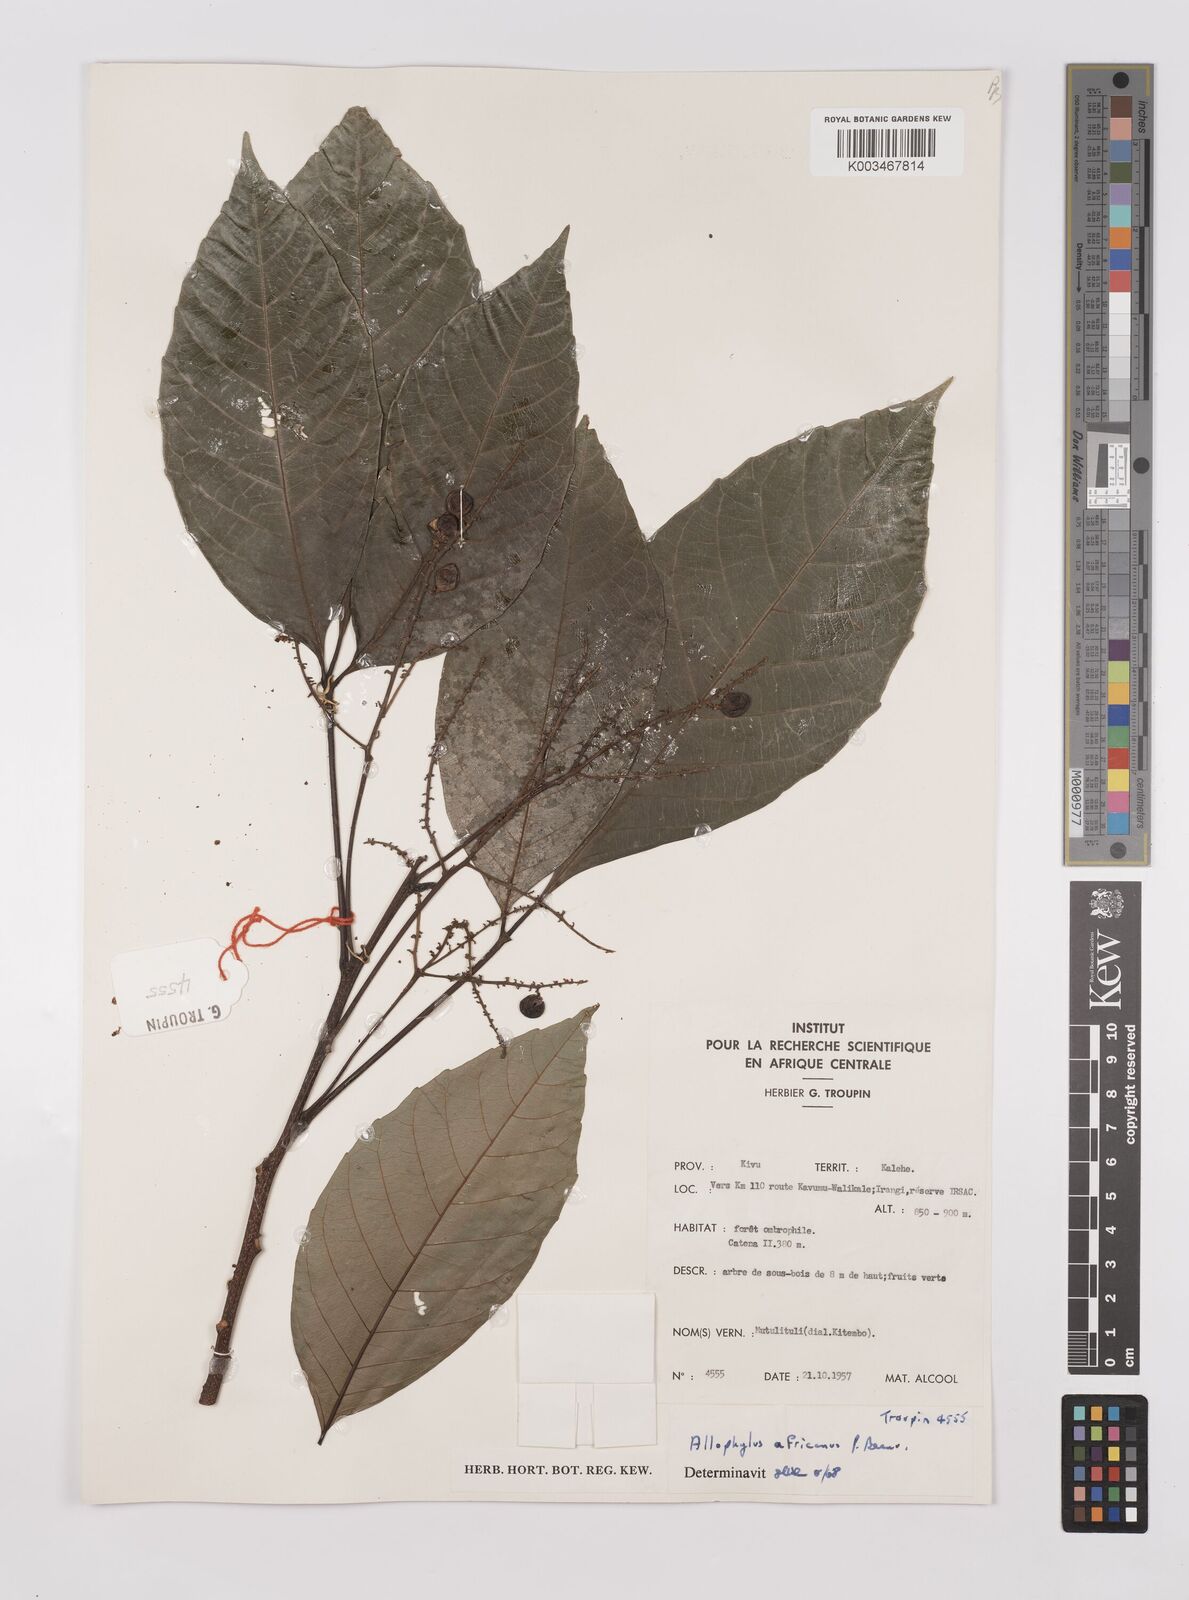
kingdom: Plantae
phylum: Tracheophyta
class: Magnoliopsida
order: Sapindales
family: Sapindaceae
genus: Allophylus
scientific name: Allophylus africanus
